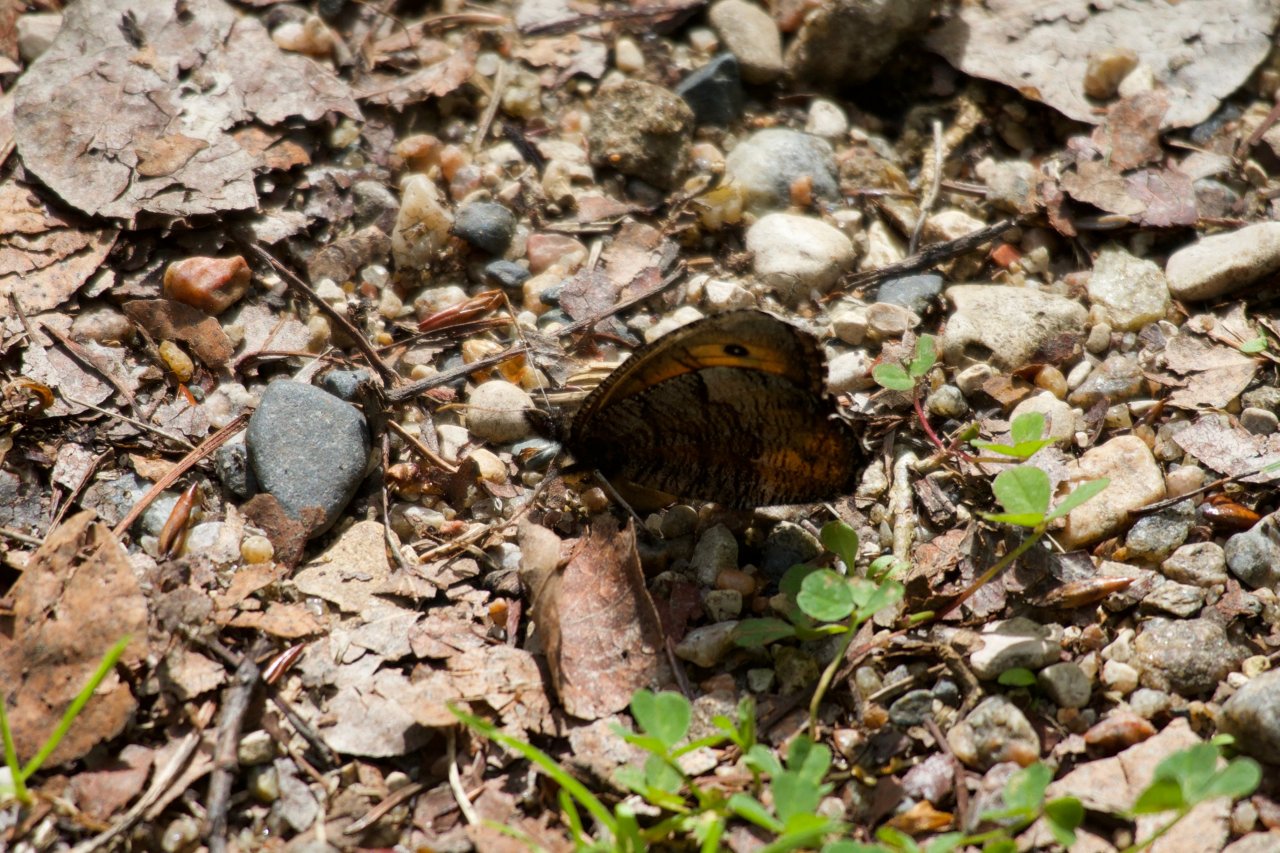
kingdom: Animalia
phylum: Arthropoda
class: Insecta
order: Lepidoptera
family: Nymphalidae
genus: Oeneis
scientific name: Oeneis macounii
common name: Macoun's Arctic
